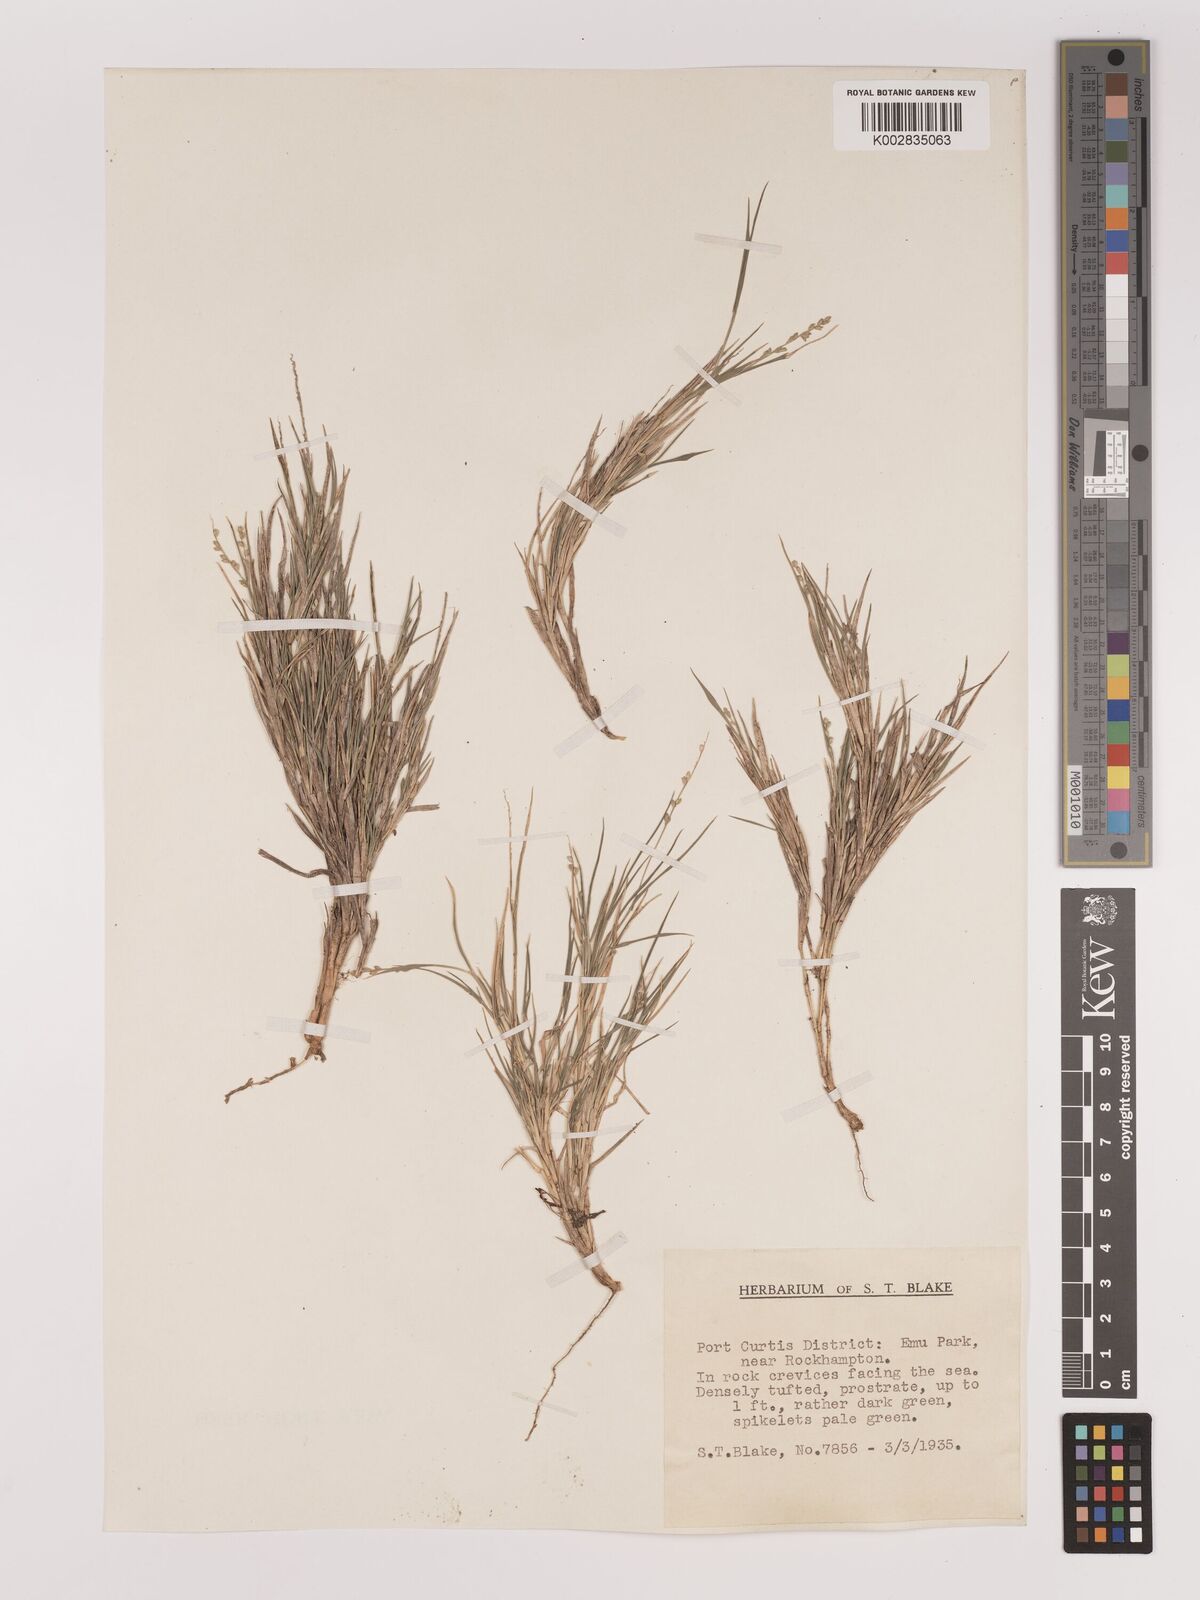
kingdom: Plantae
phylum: Tracheophyta
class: Liliopsida
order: Poales
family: Poaceae
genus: Setaria
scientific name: Setaria
